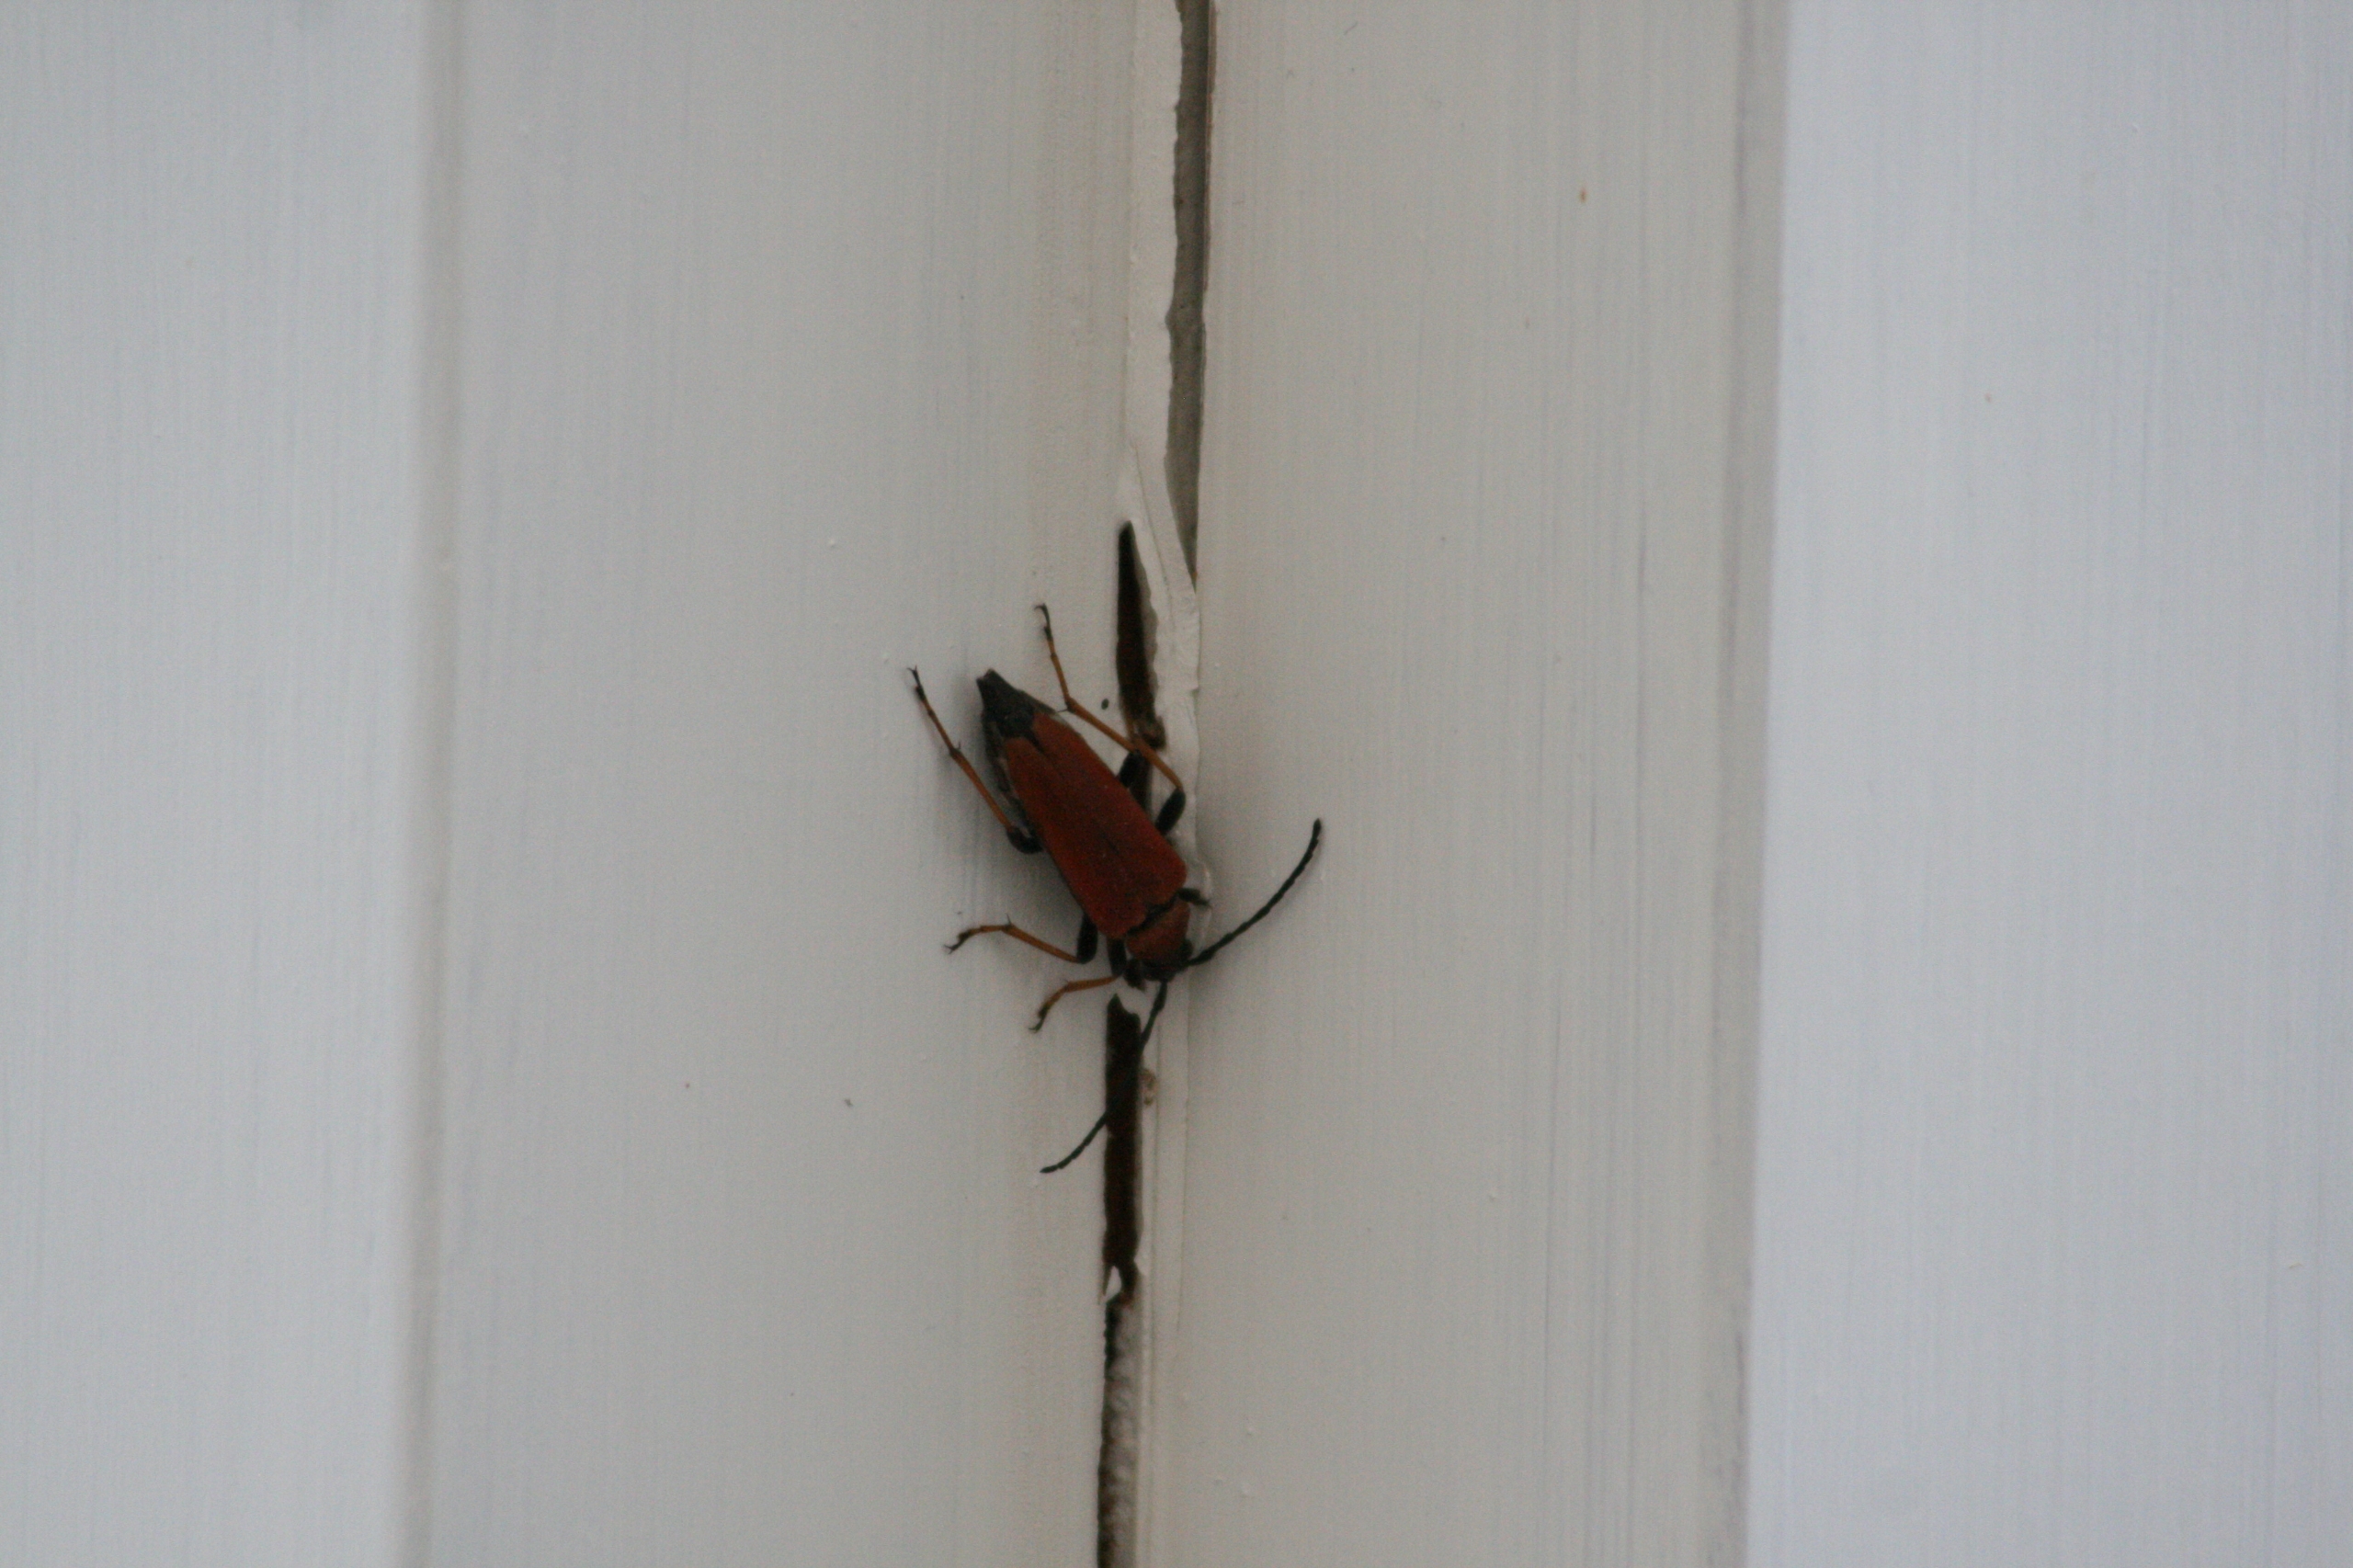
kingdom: Animalia
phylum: Arthropoda
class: Insecta
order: Coleoptera
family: Cerambycidae
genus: Stictoleptura
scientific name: Stictoleptura rubra
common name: Rød blomsterbuk
